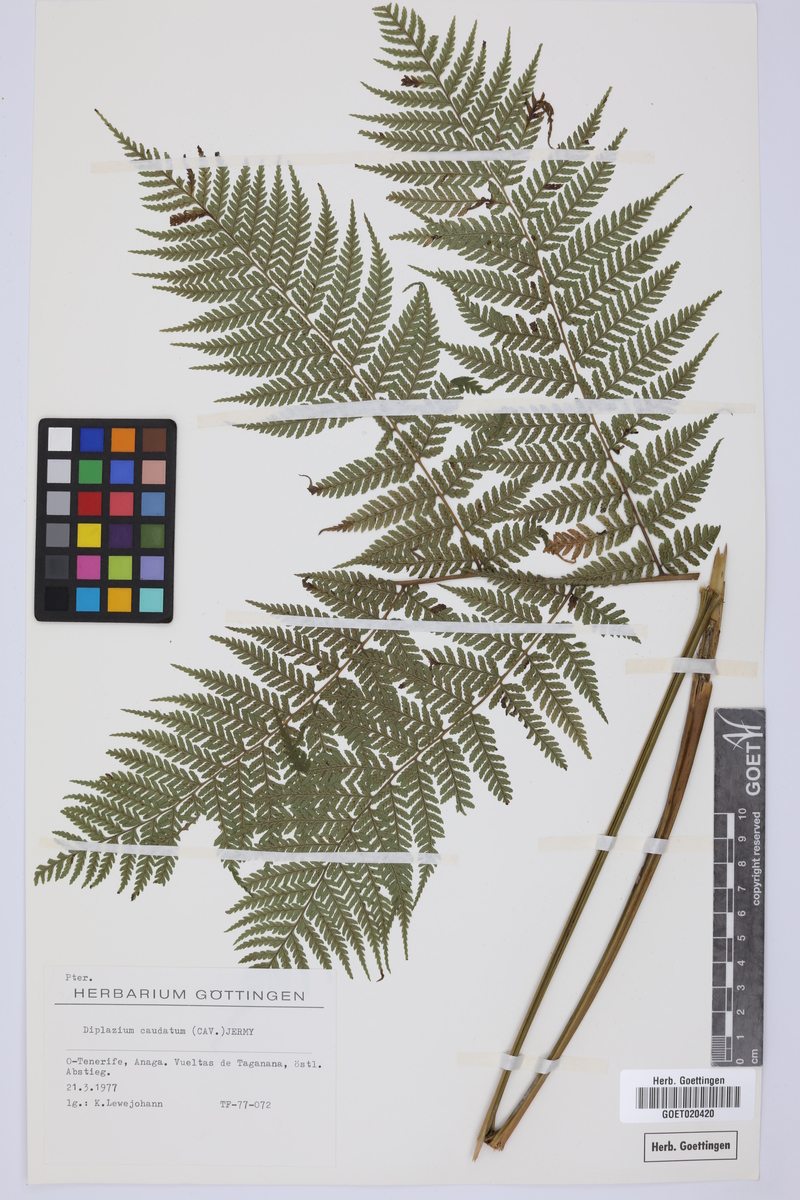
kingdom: Plantae
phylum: Tracheophyta
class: Polypodiopsida
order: Polypodiales
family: Athyriaceae
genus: Diplazium
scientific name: Diplazium caudatum
